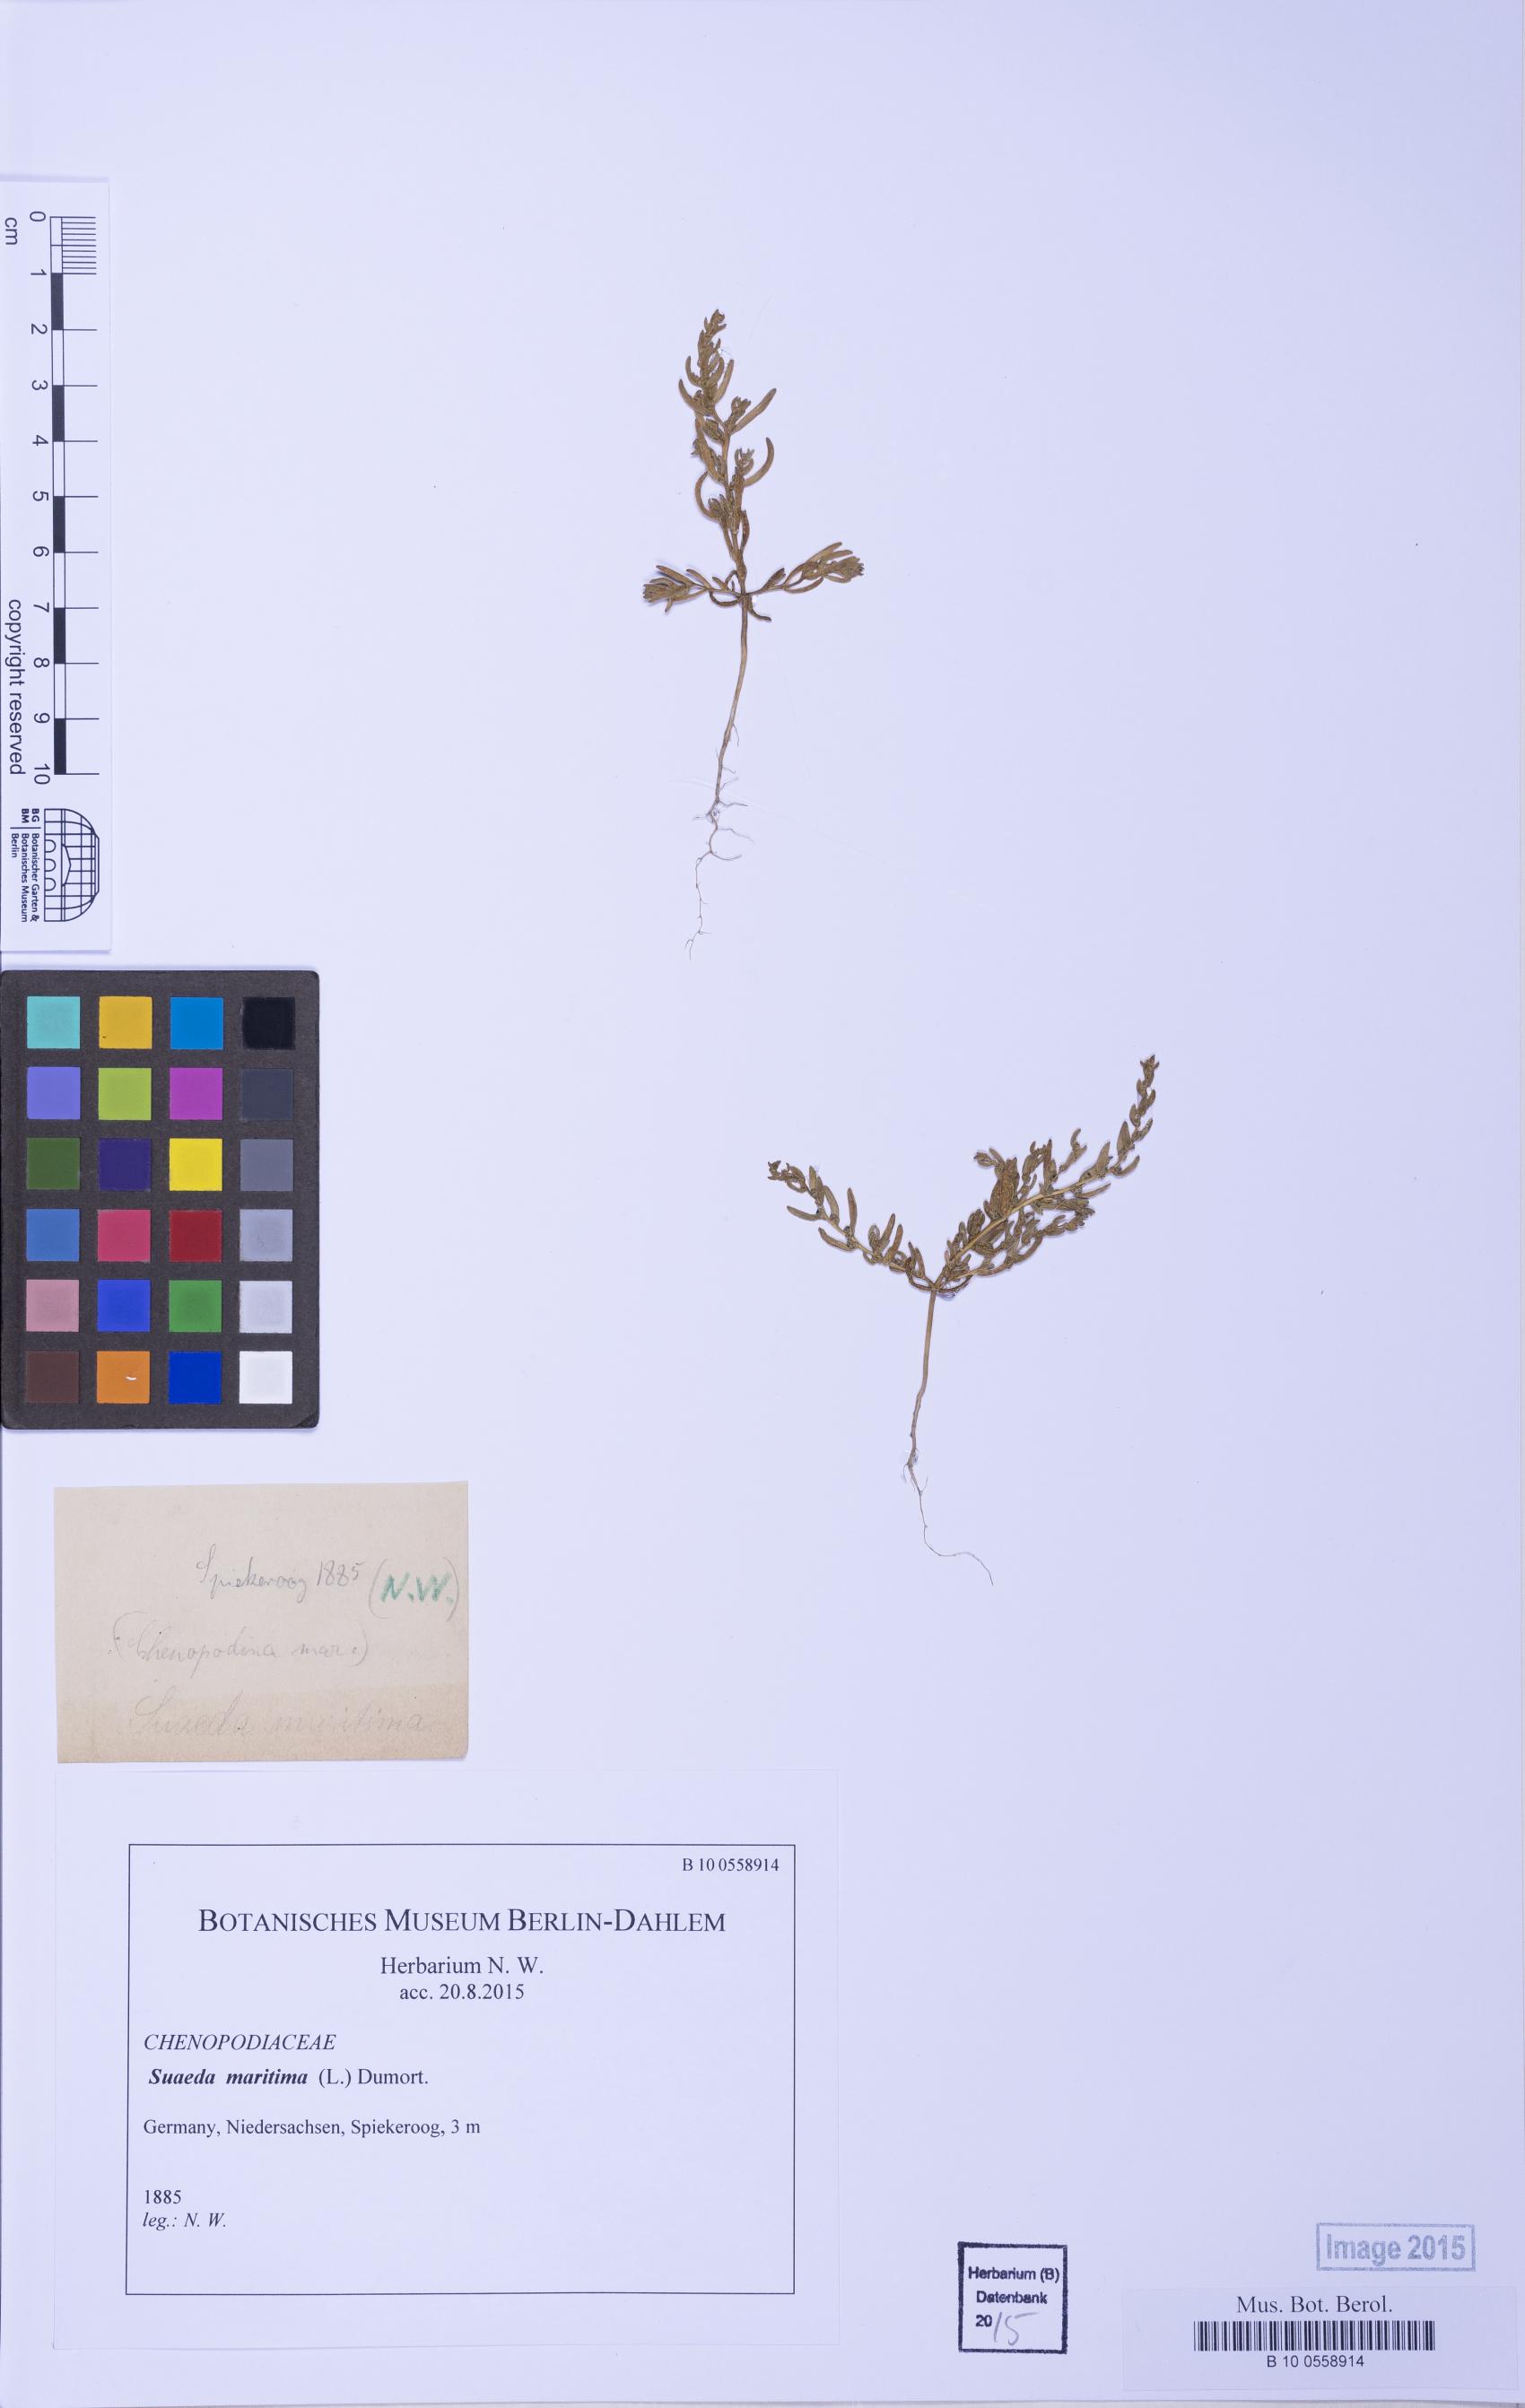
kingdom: Plantae
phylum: Tracheophyta
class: Magnoliopsida
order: Caryophyllales
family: Amaranthaceae
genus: Suaeda
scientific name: Suaeda maritima
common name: Annual sea-blite
